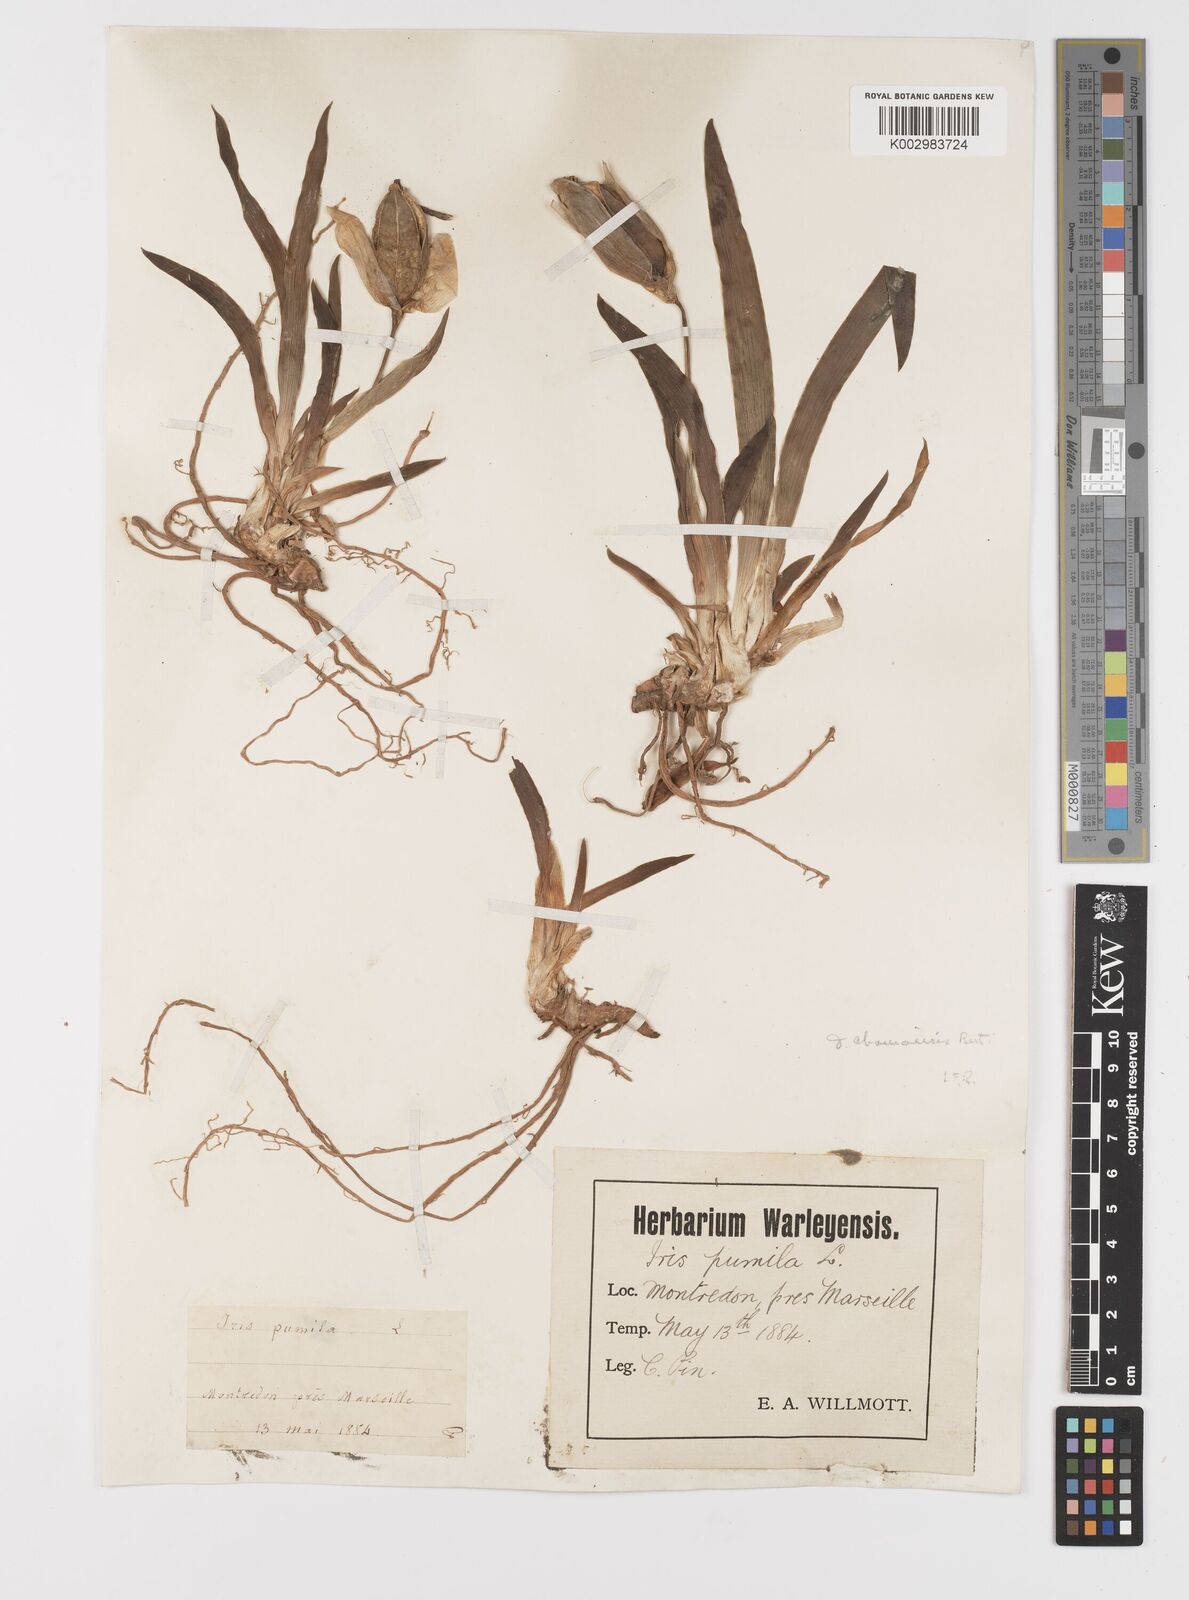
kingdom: Plantae
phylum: Tracheophyta
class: Liliopsida
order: Asparagales
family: Iridaceae
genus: Iris
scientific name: Iris lutescens
